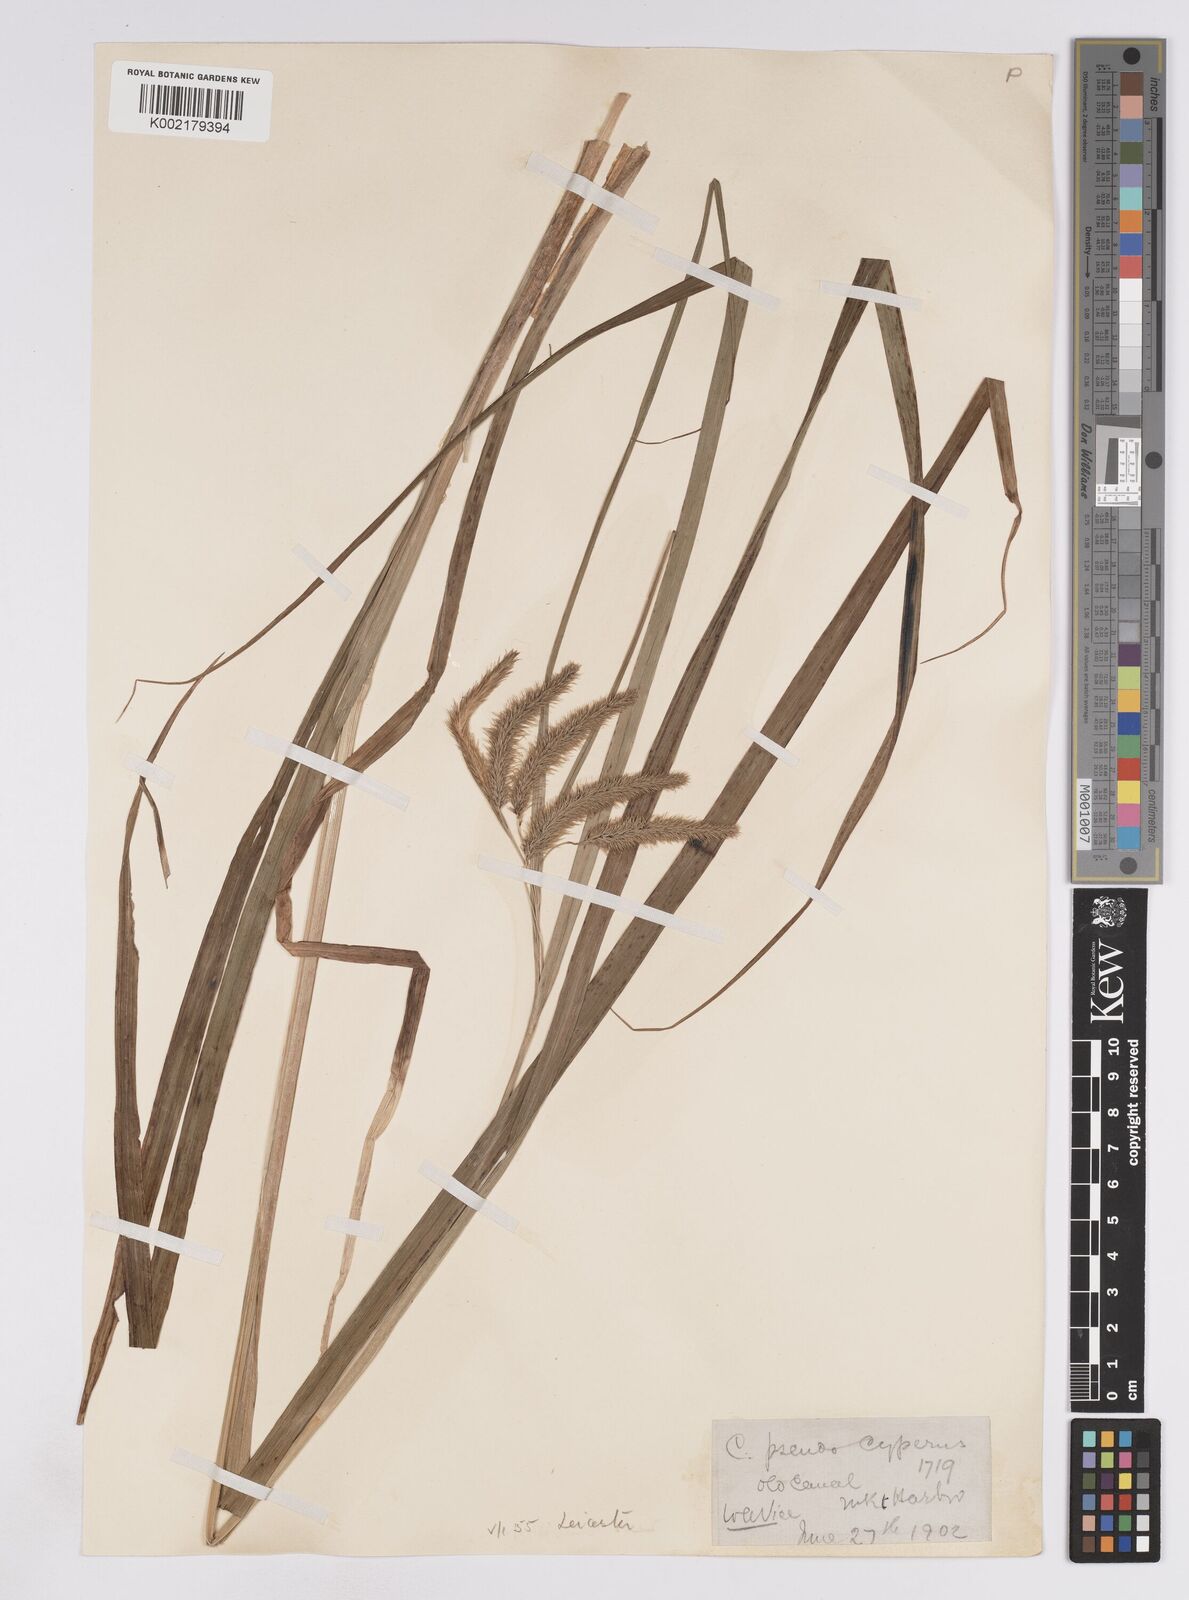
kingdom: Plantae
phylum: Tracheophyta
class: Liliopsida
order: Poales
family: Cyperaceae
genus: Carex
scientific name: Carex pseudocyperus
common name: Cyperus sedge
